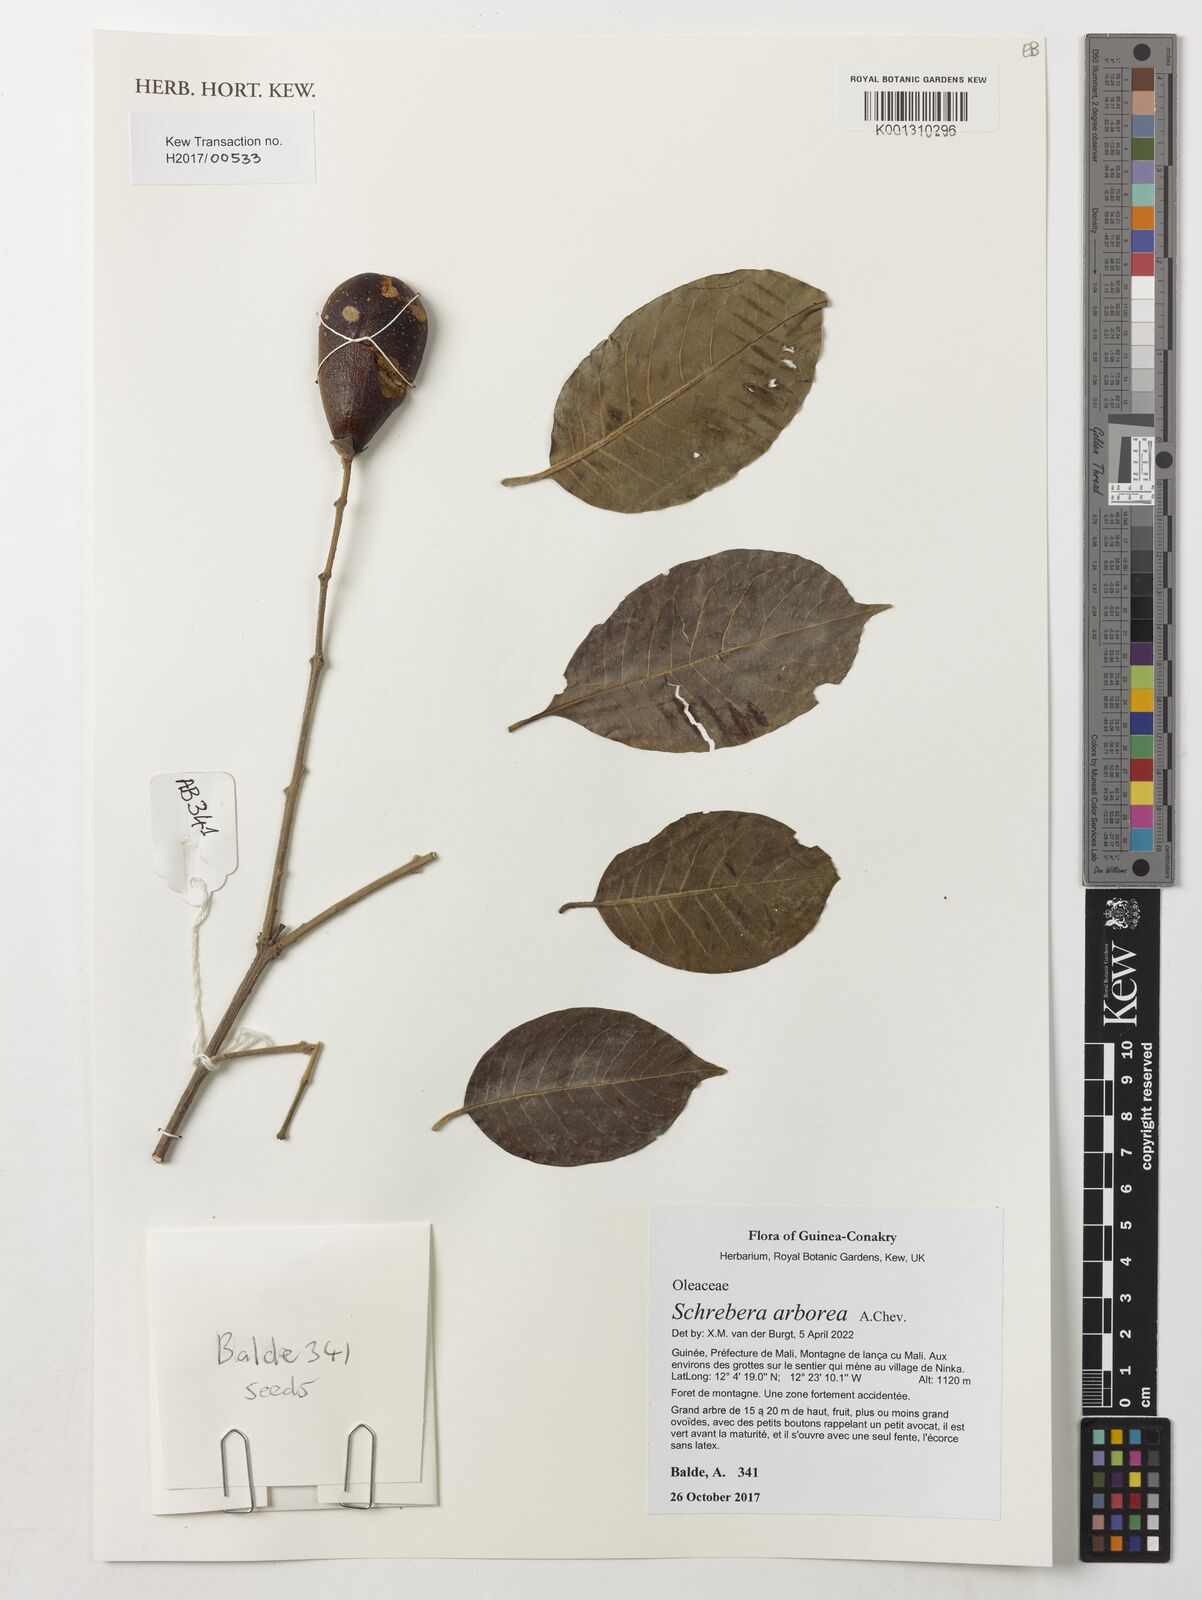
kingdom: Plantae
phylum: Tracheophyta
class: Magnoliopsida
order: Lamiales
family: Oleaceae
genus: Schrebera
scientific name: Schrebera arborea
